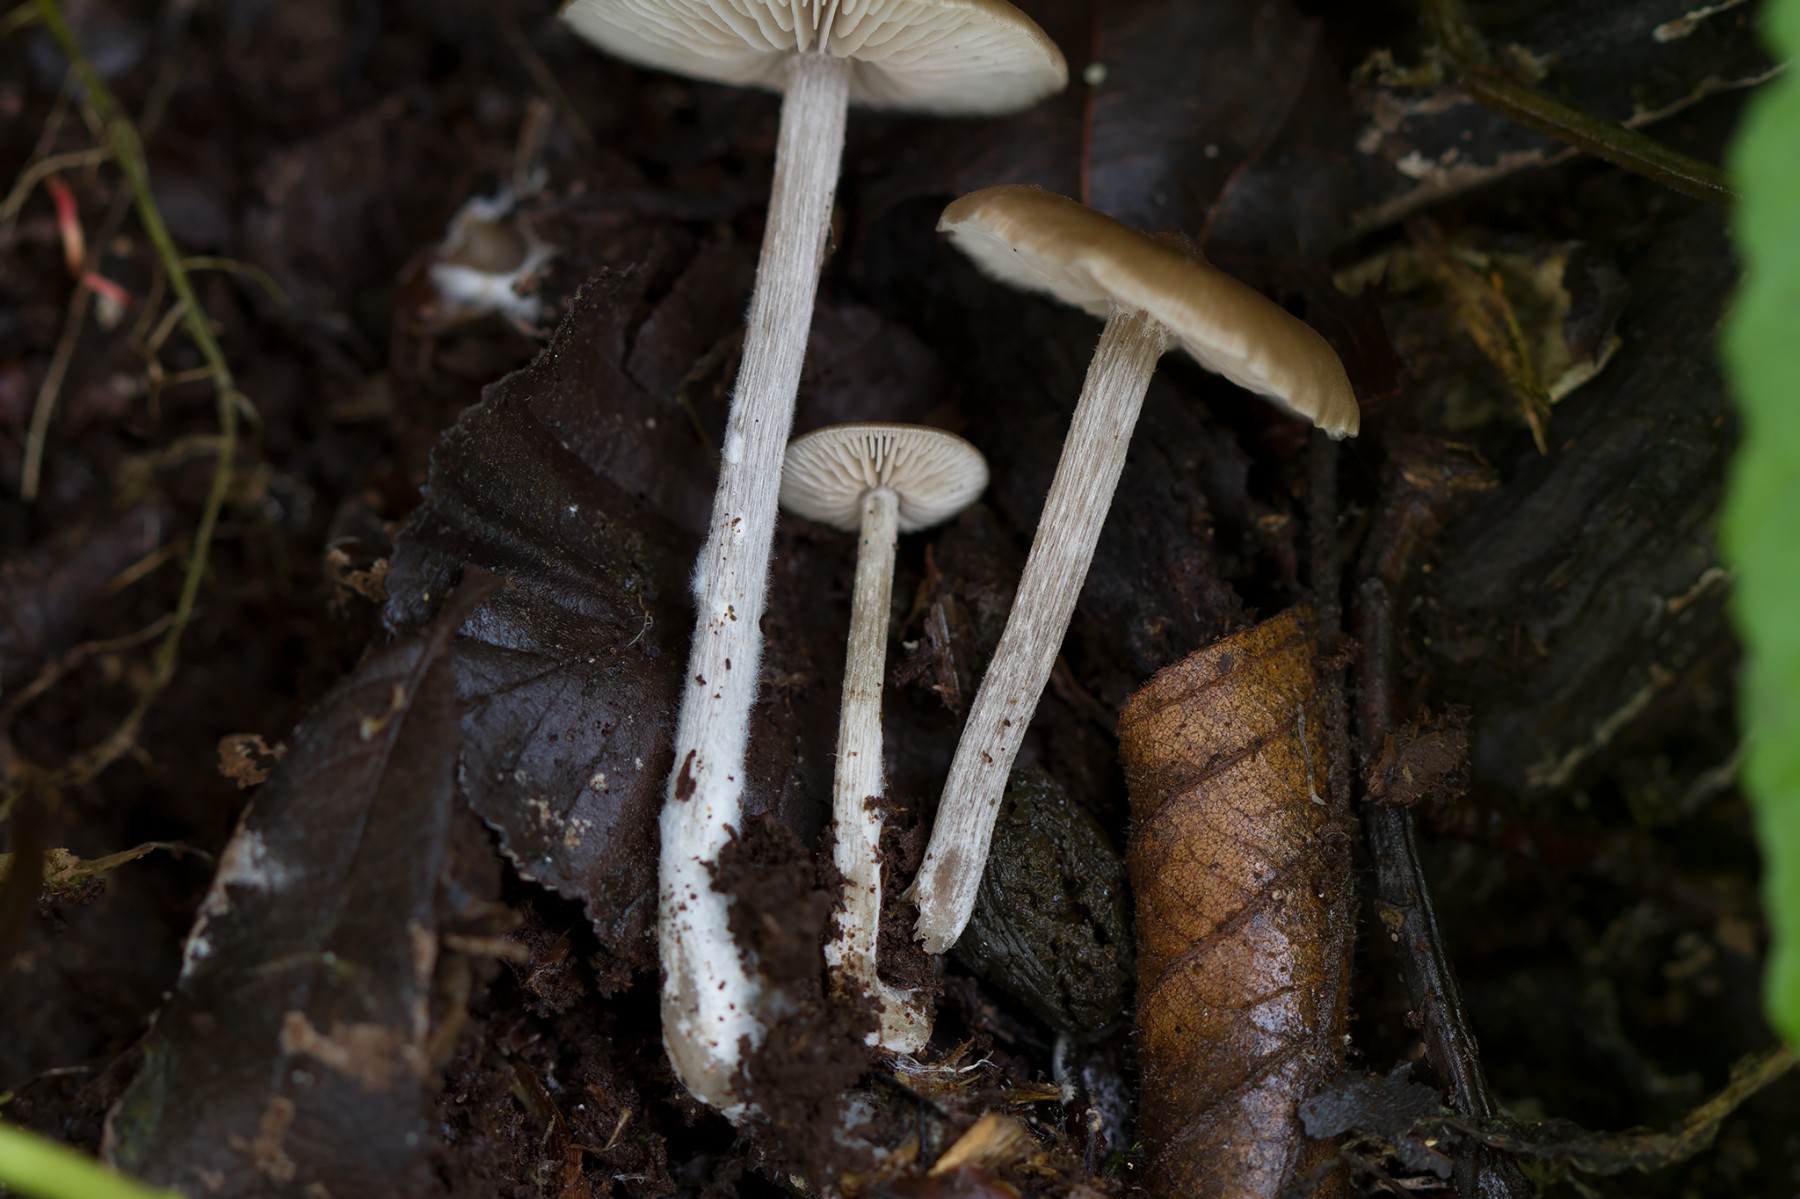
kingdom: Fungi
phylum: Basidiomycota
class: Agaricomycetes
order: Agaricales
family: Entolomataceae
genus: Entoloma
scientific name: Entoloma hebes
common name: krat-rødblad
